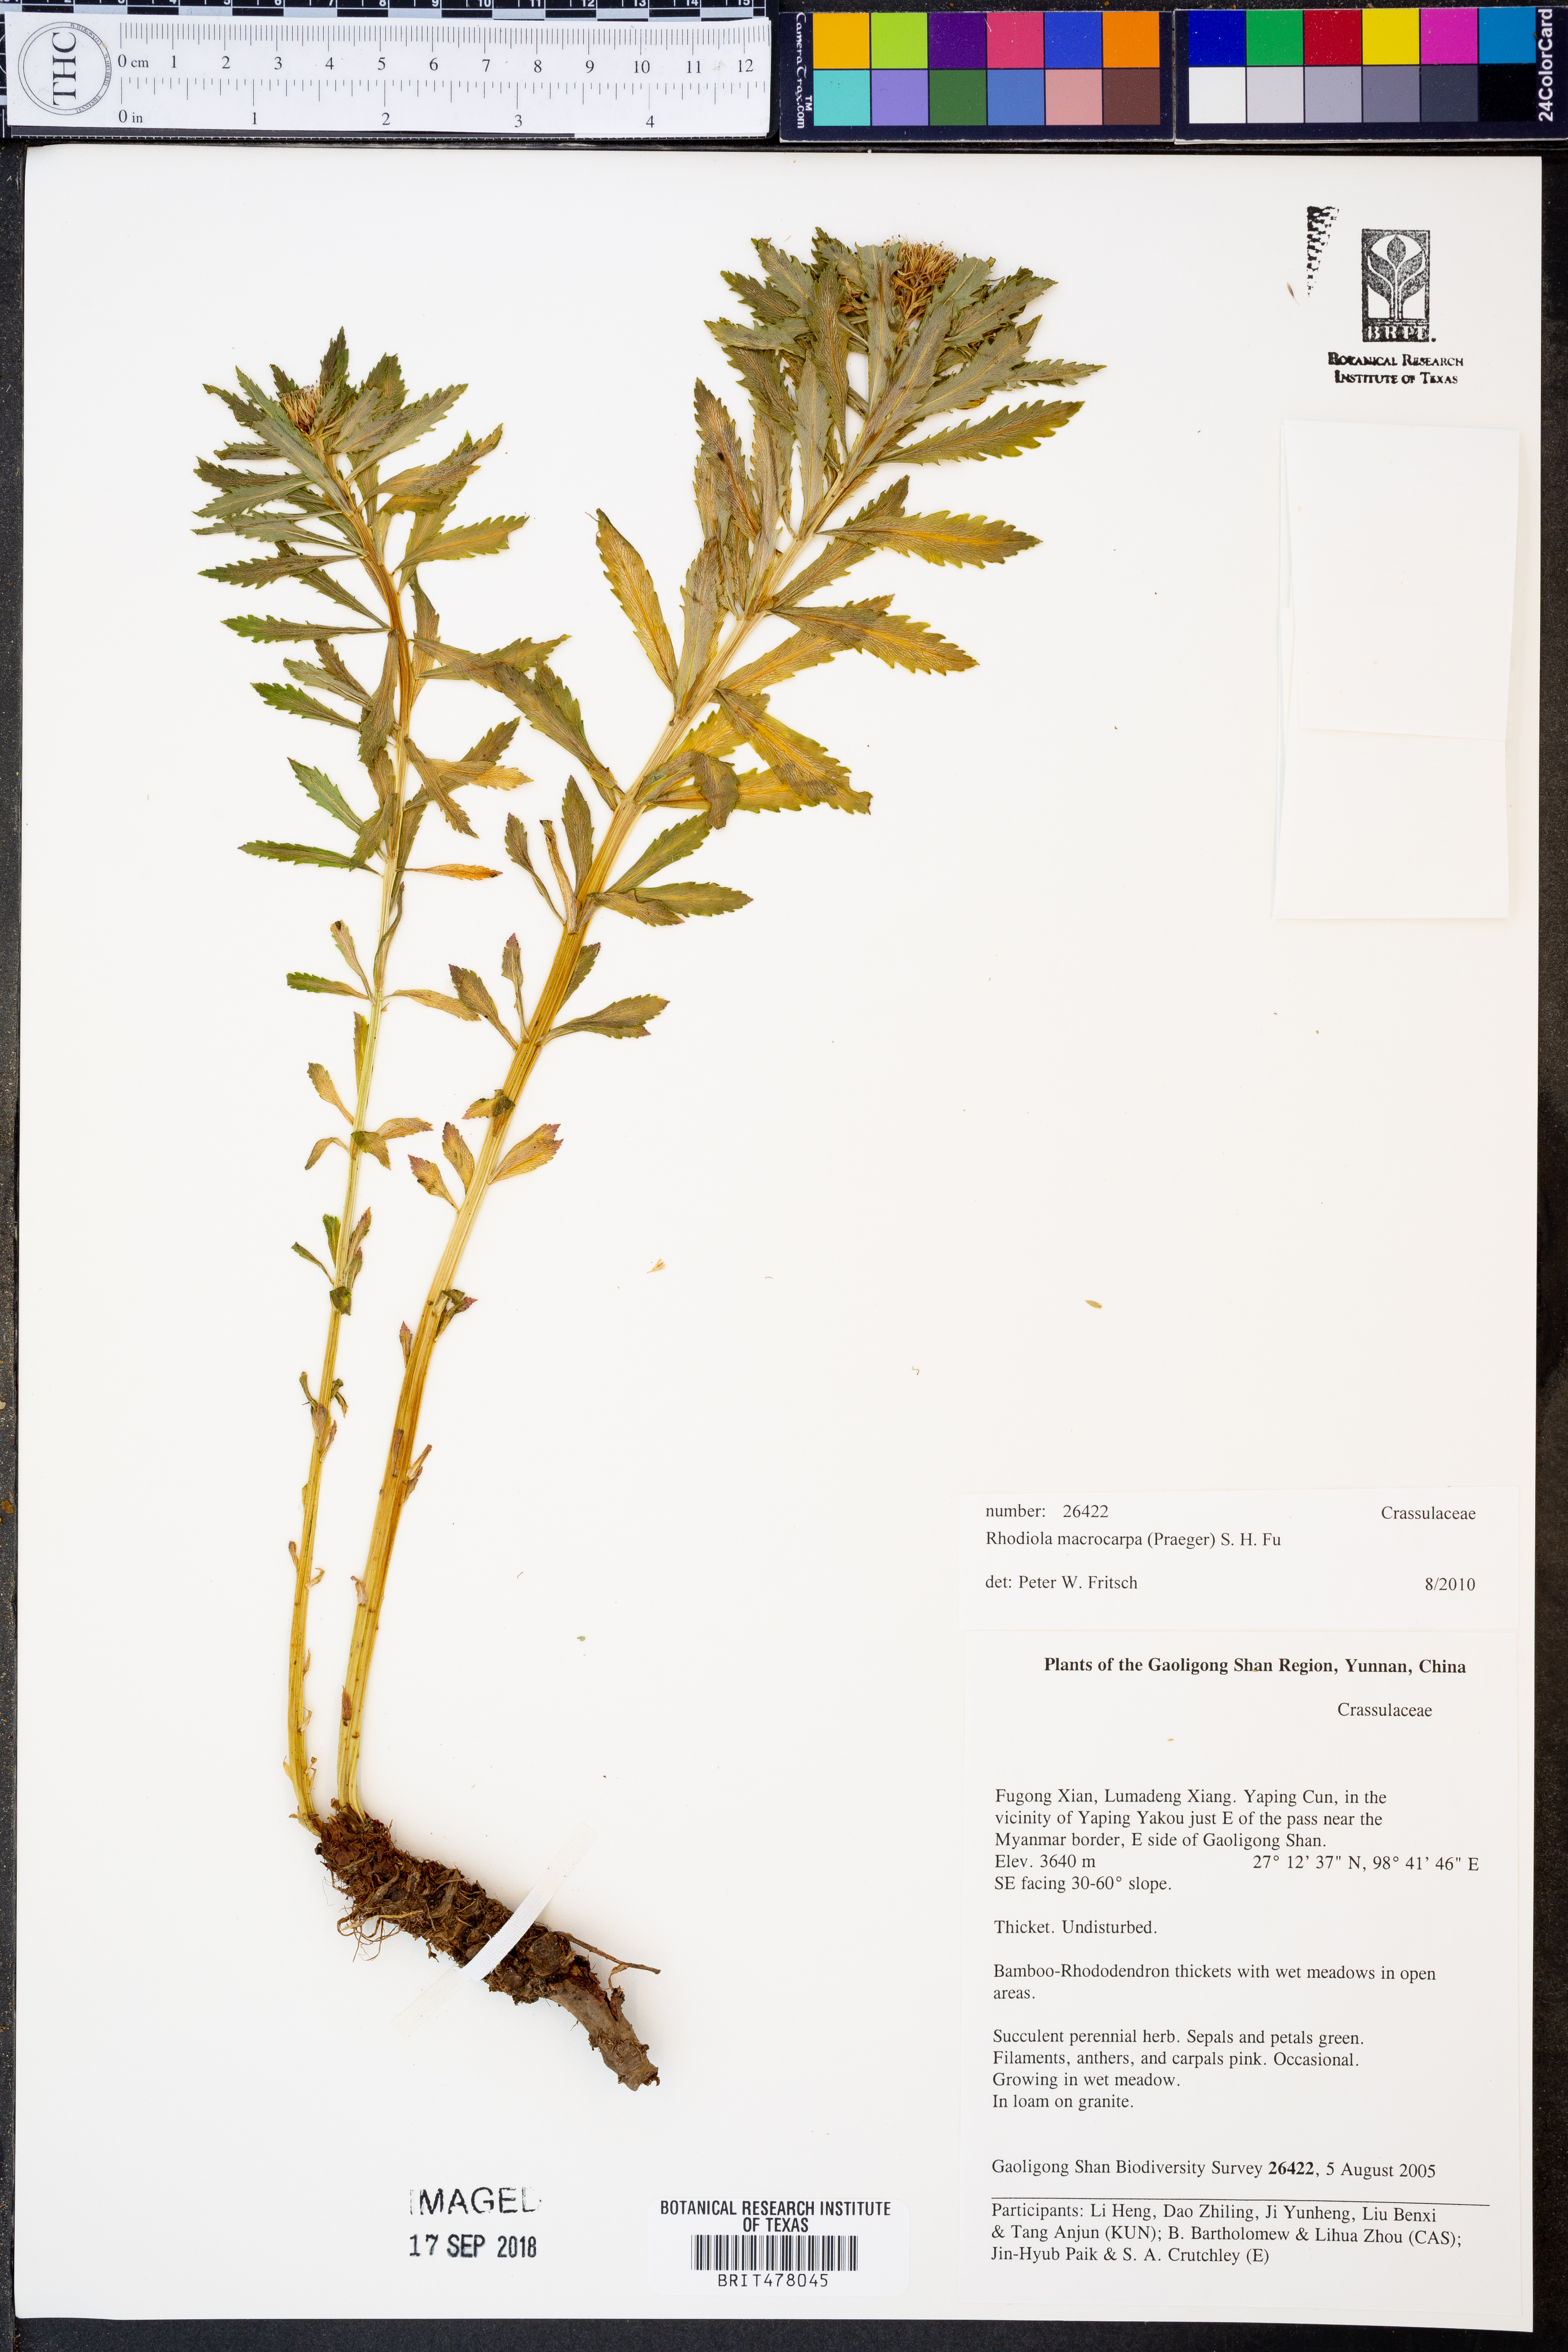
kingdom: Plantae
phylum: Tracheophyta
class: Magnoliopsida
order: Saxifragales
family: Crassulaceae
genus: Rhodiola
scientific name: Rhodiola macrocarpa
